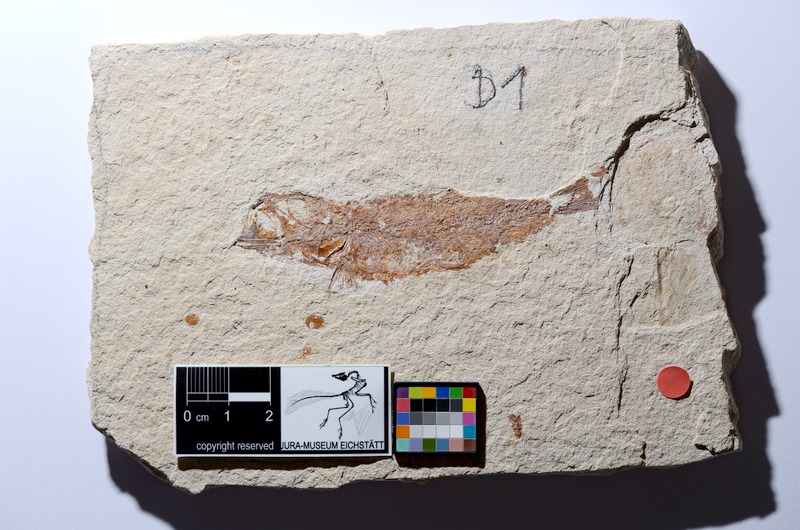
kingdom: Animalia
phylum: Chordata
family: Ascalaboidae
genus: Tharsis
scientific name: Tharsis dubius
